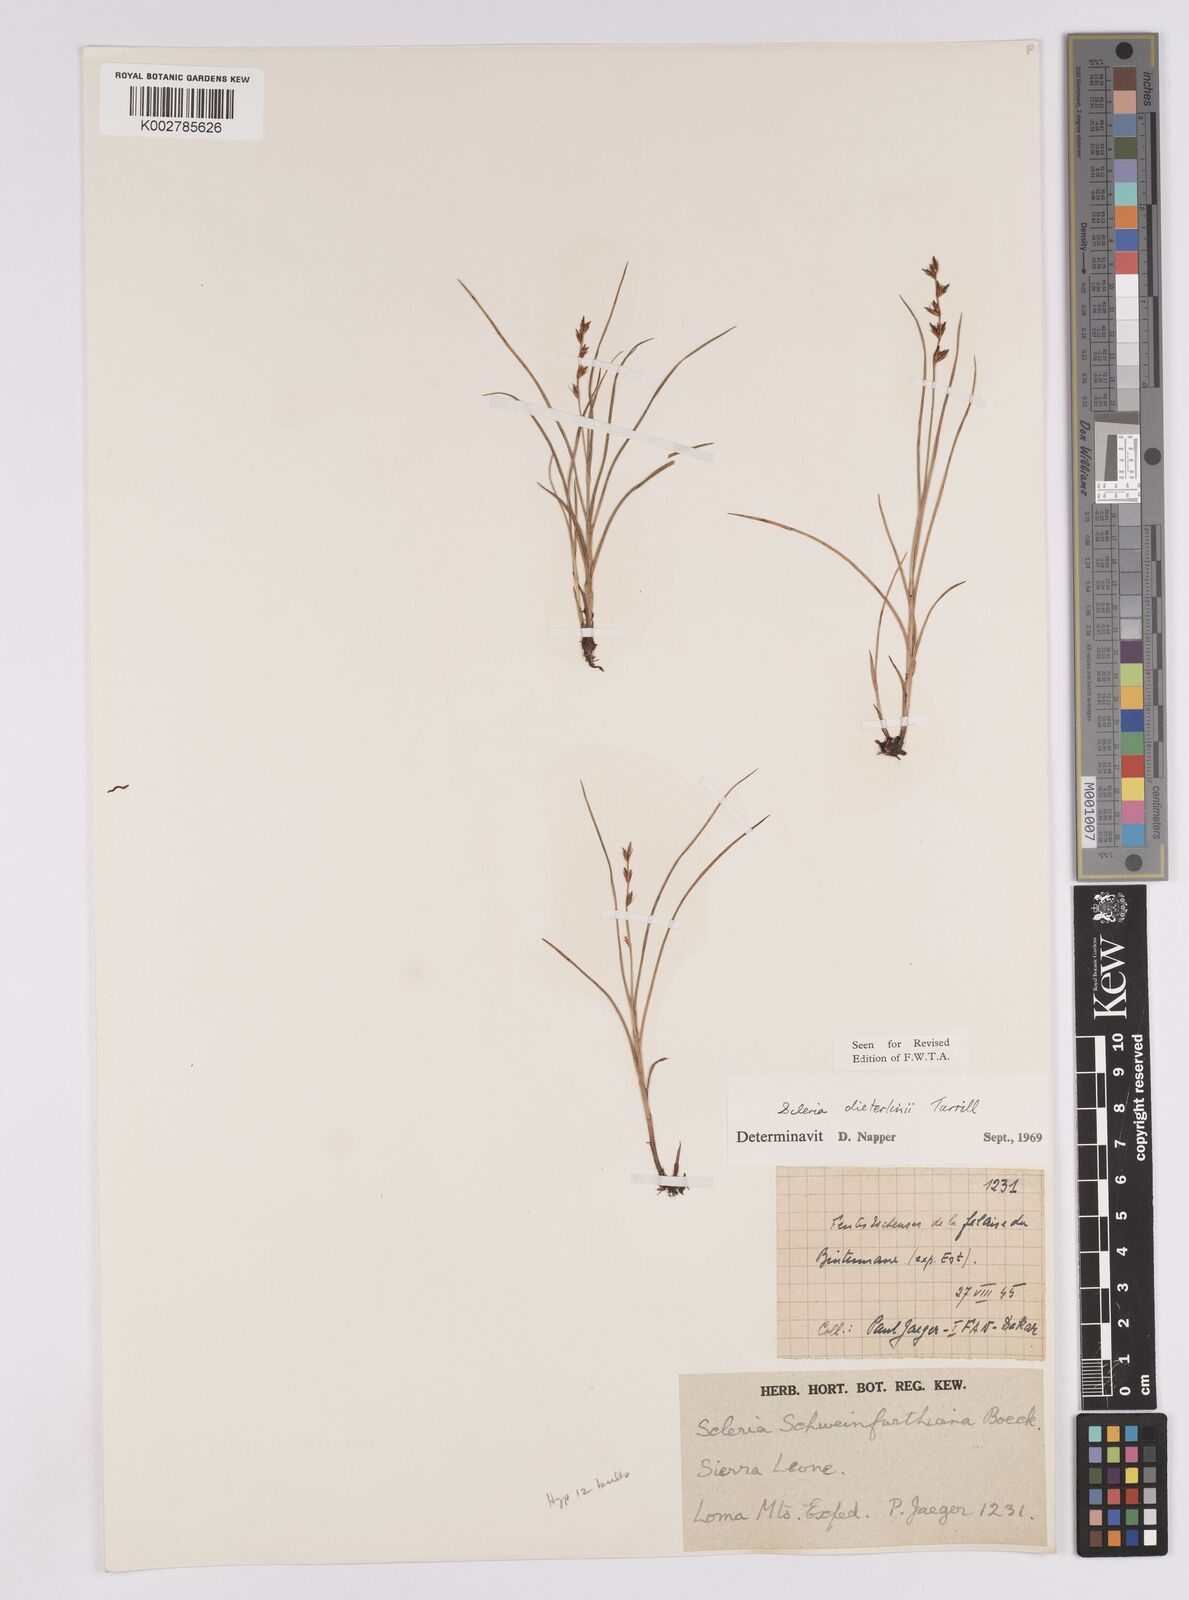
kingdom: Plantae
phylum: Tracheophyta
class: Liliopsida
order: Poales
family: Cyperaceae
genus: Scleria
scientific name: Scleria flexuosa
